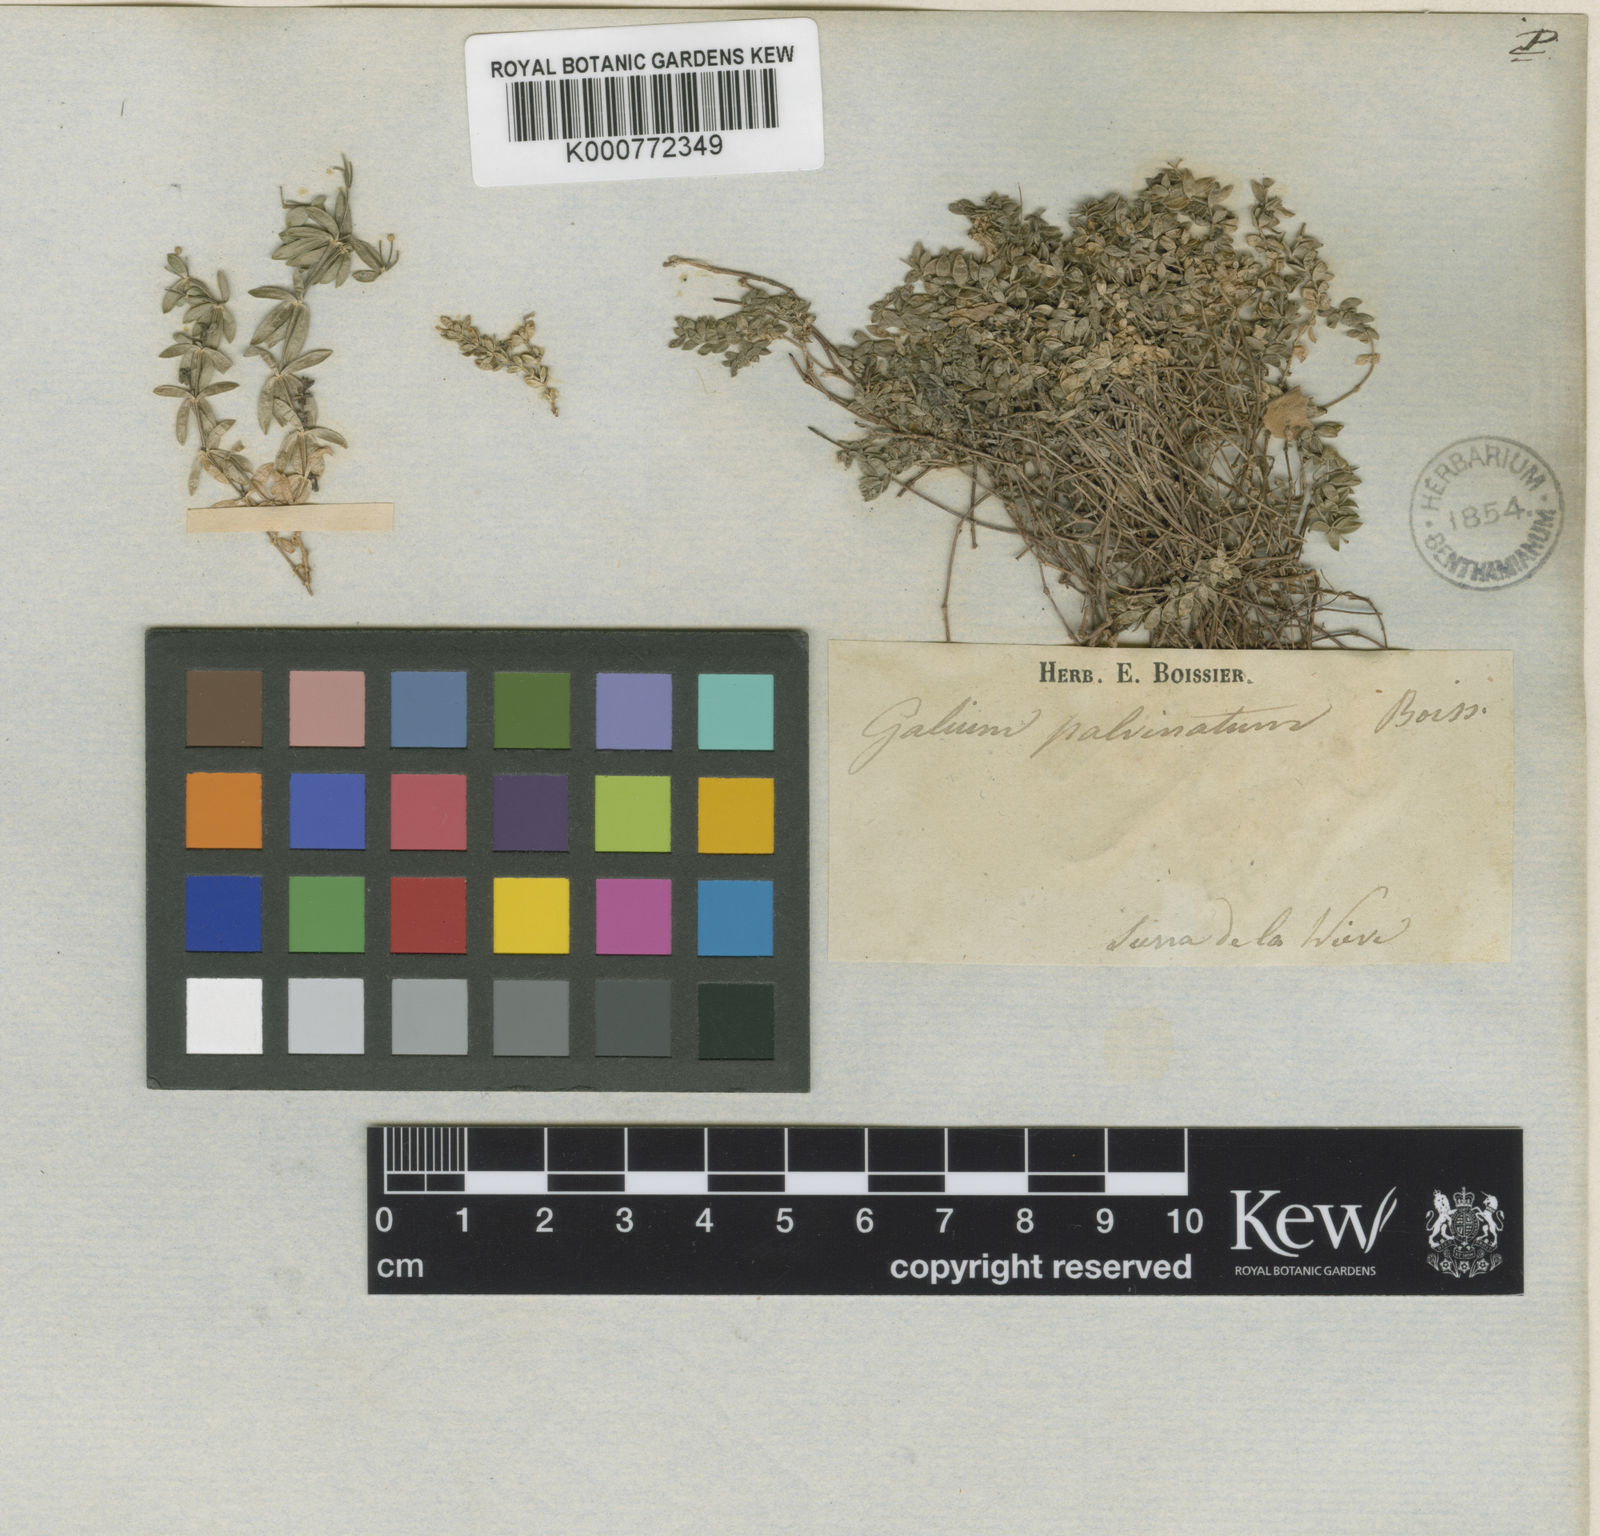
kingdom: Plantae
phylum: Tracheophyta
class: Magnoliopsida
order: Gentianales
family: Rubiaceae
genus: Galium
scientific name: Galium pulvinatum
